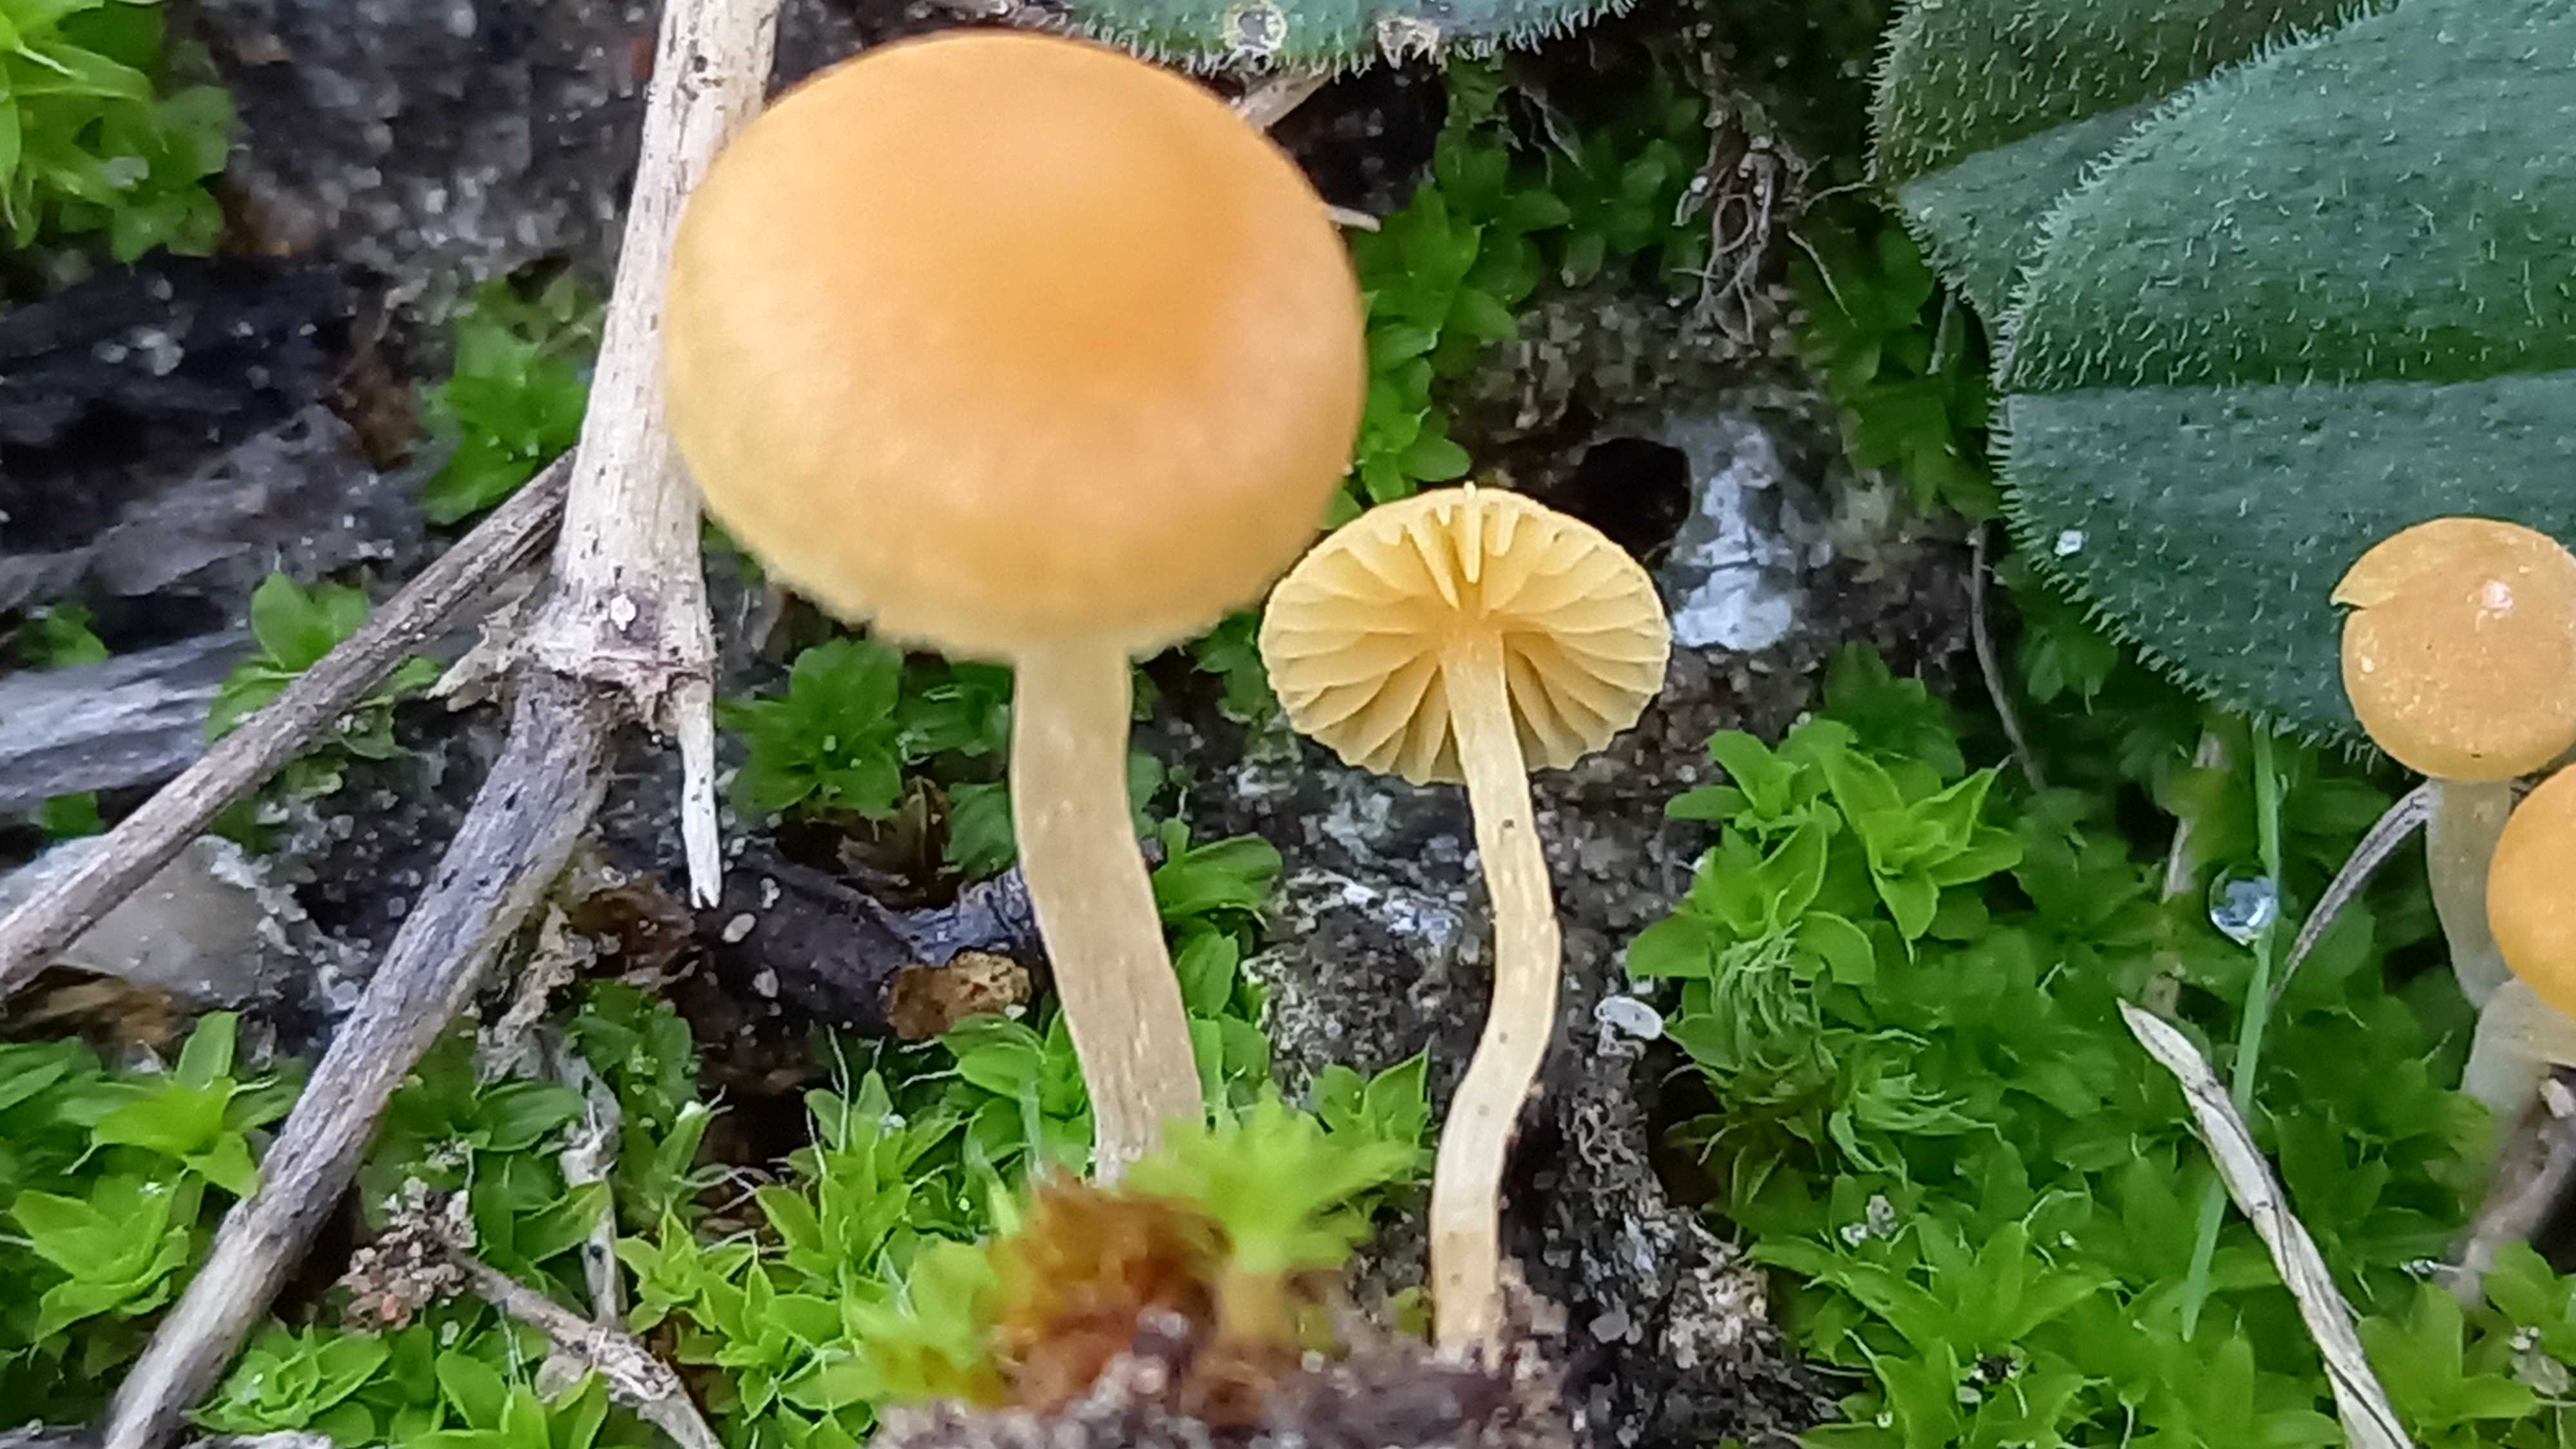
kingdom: Fungi
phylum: Basidiomycota
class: Agaricomycetes
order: Agaricales
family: Hymenogastraceae
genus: Galerina
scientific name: Galerina graminea
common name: plæne-hjelmhat
